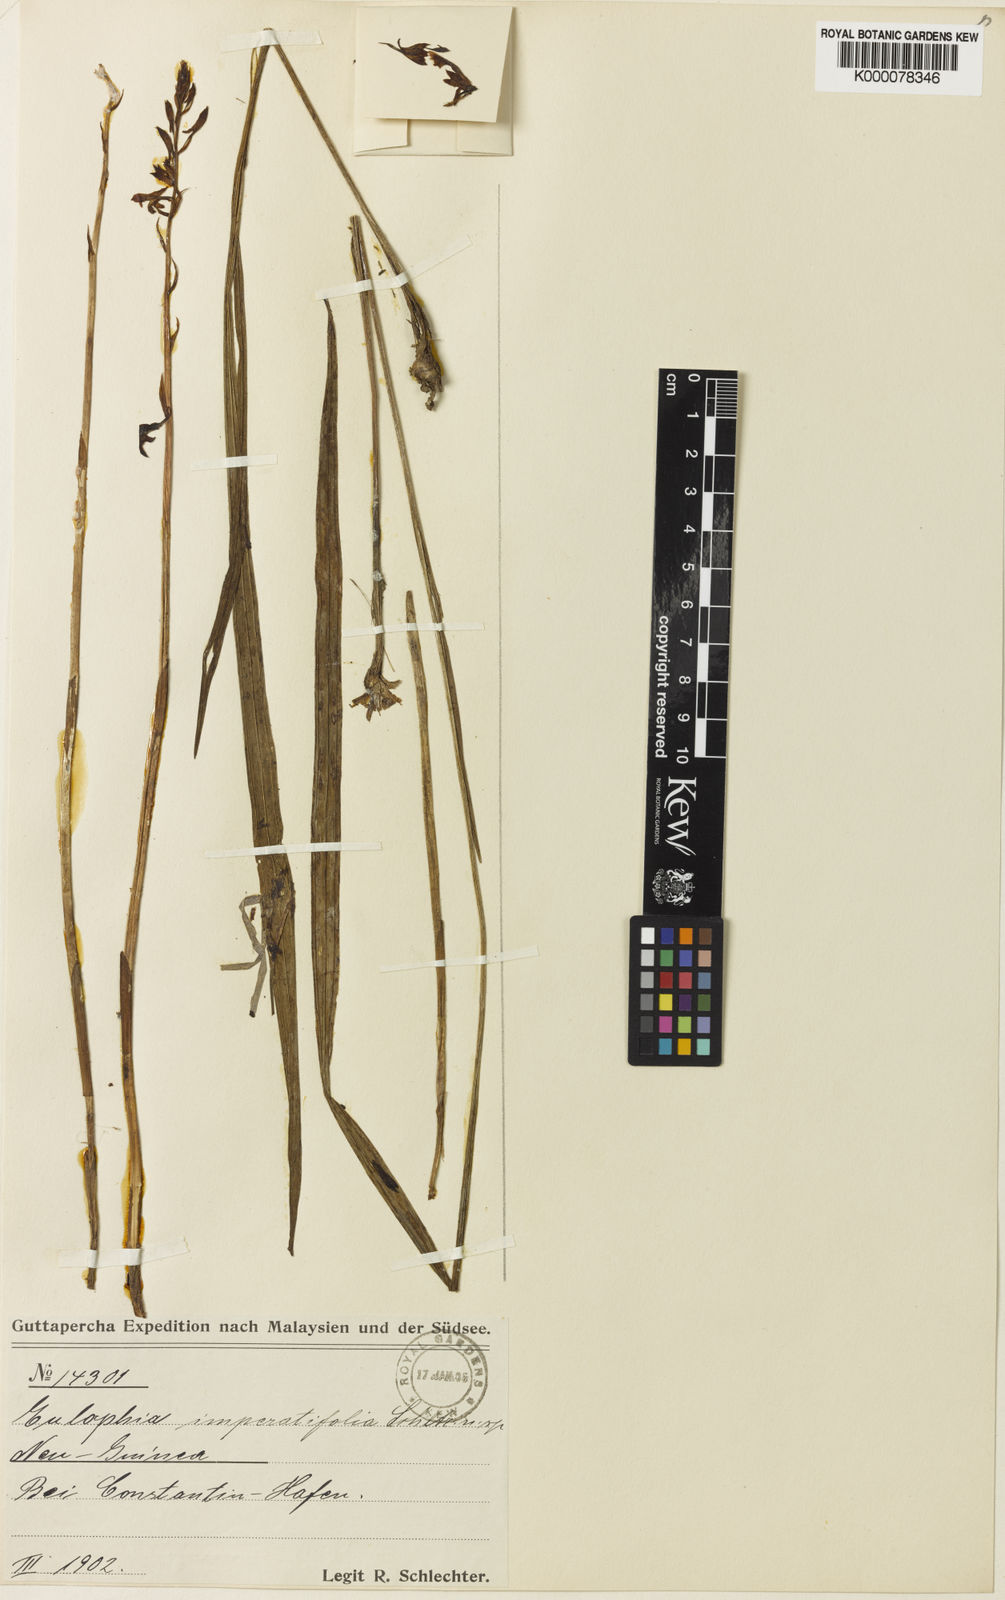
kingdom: Plantae
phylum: Tracheophyta
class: Liliopsida
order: Asparagales
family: Orchidaceae
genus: Eulophia
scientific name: Eulophia dahliana
